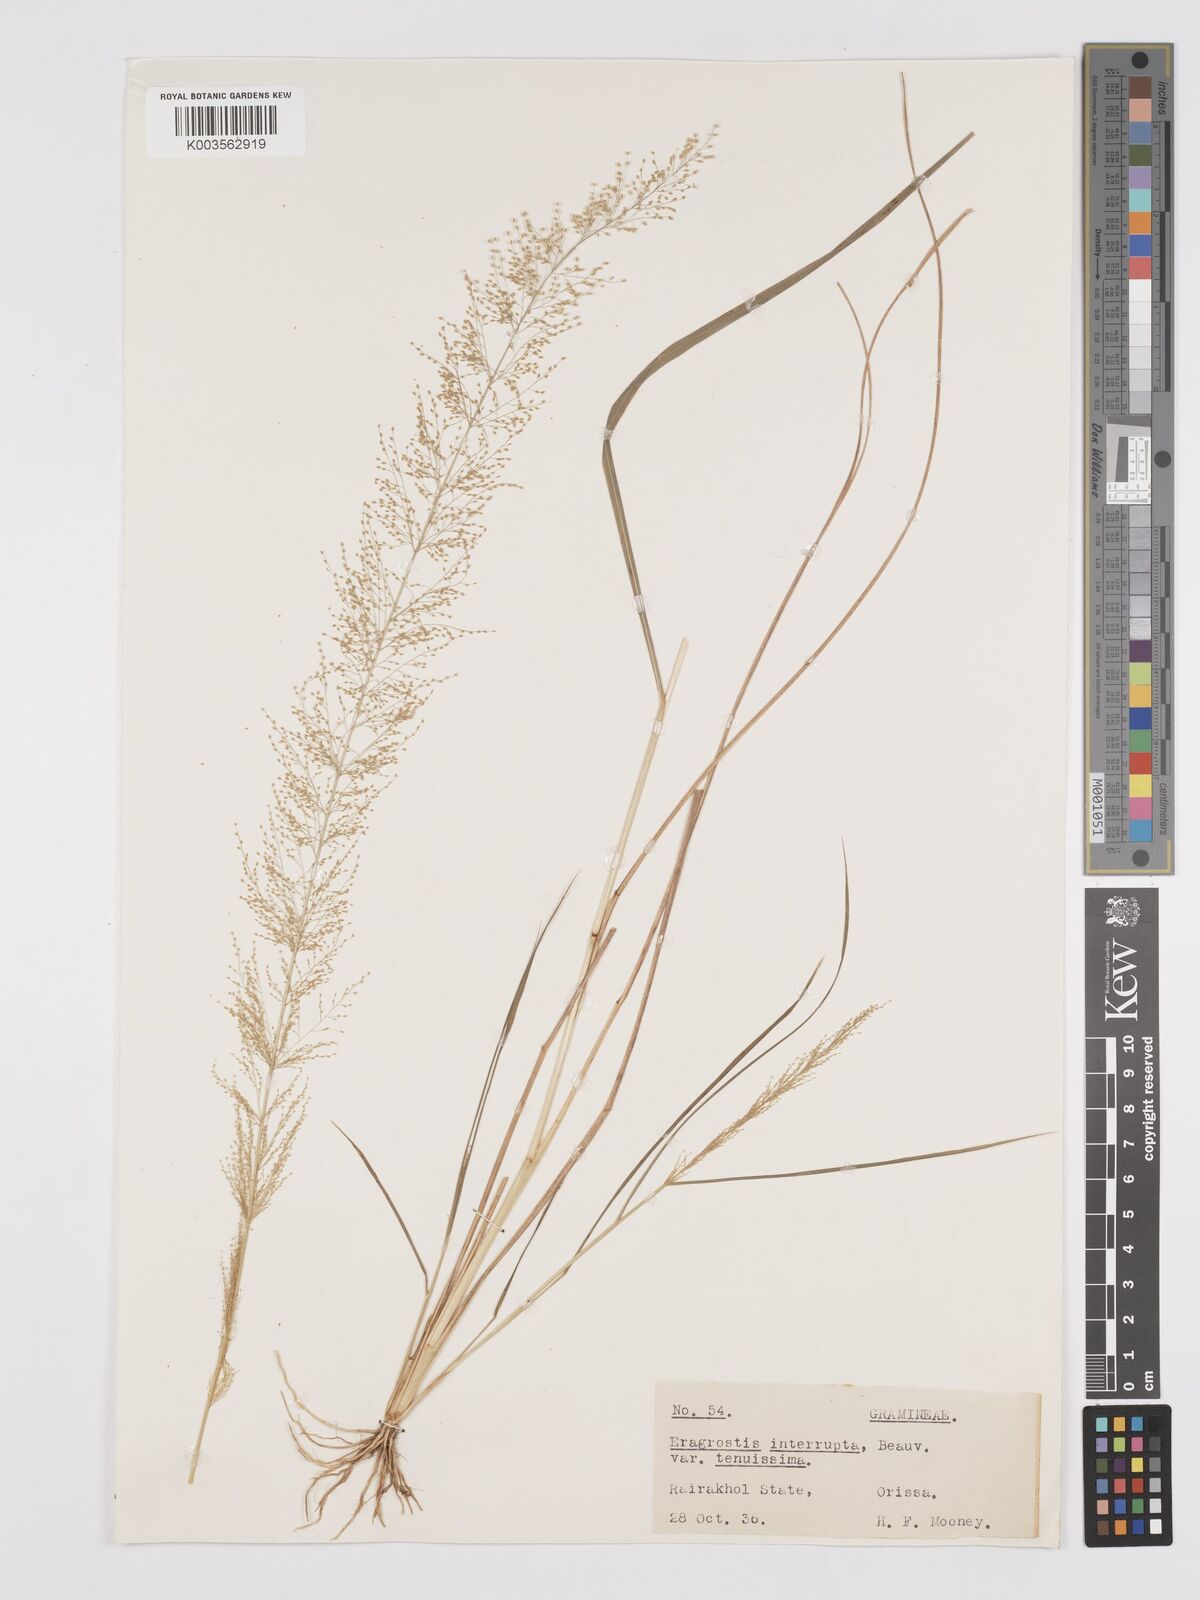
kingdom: Plantae
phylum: Tracheophyta
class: Liliopsida
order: Poales
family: Poaceae
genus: Eragrostis
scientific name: Eragrostis japonica
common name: Pond lovegrass
